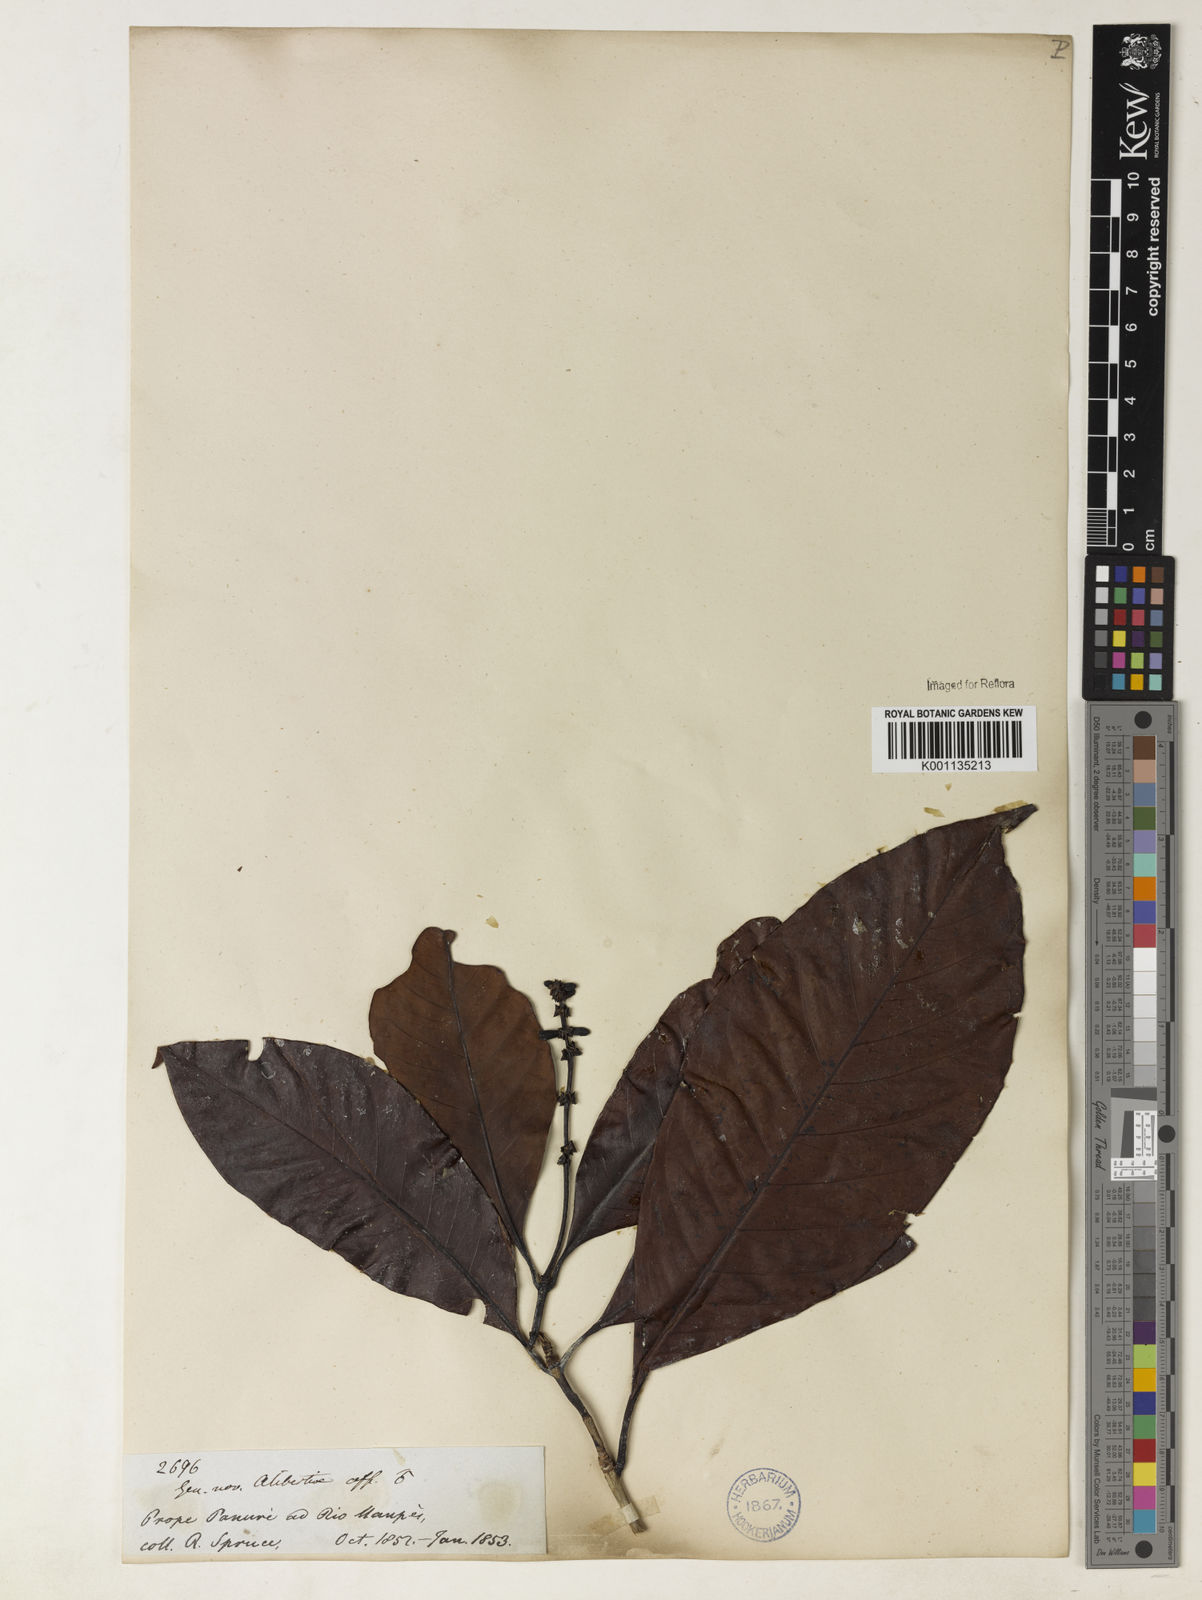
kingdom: Plantae
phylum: Tracheophyta
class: Magnoliopsida
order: Gentianales
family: Rubiaceae
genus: Stachyarrhena
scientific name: Stachyarrhena spicata
